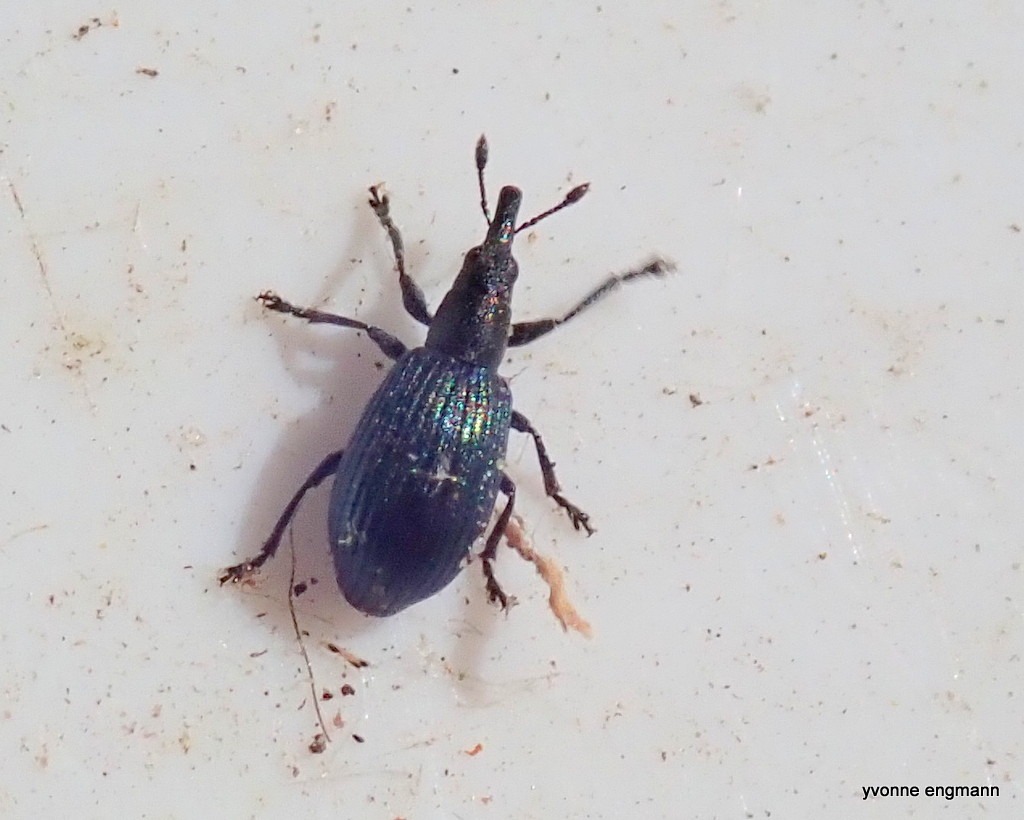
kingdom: Animalia
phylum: Arthropoda
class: Insecta
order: Coleoptera
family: Brentidae
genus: Perapion
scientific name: Perapion hydrolapathi
